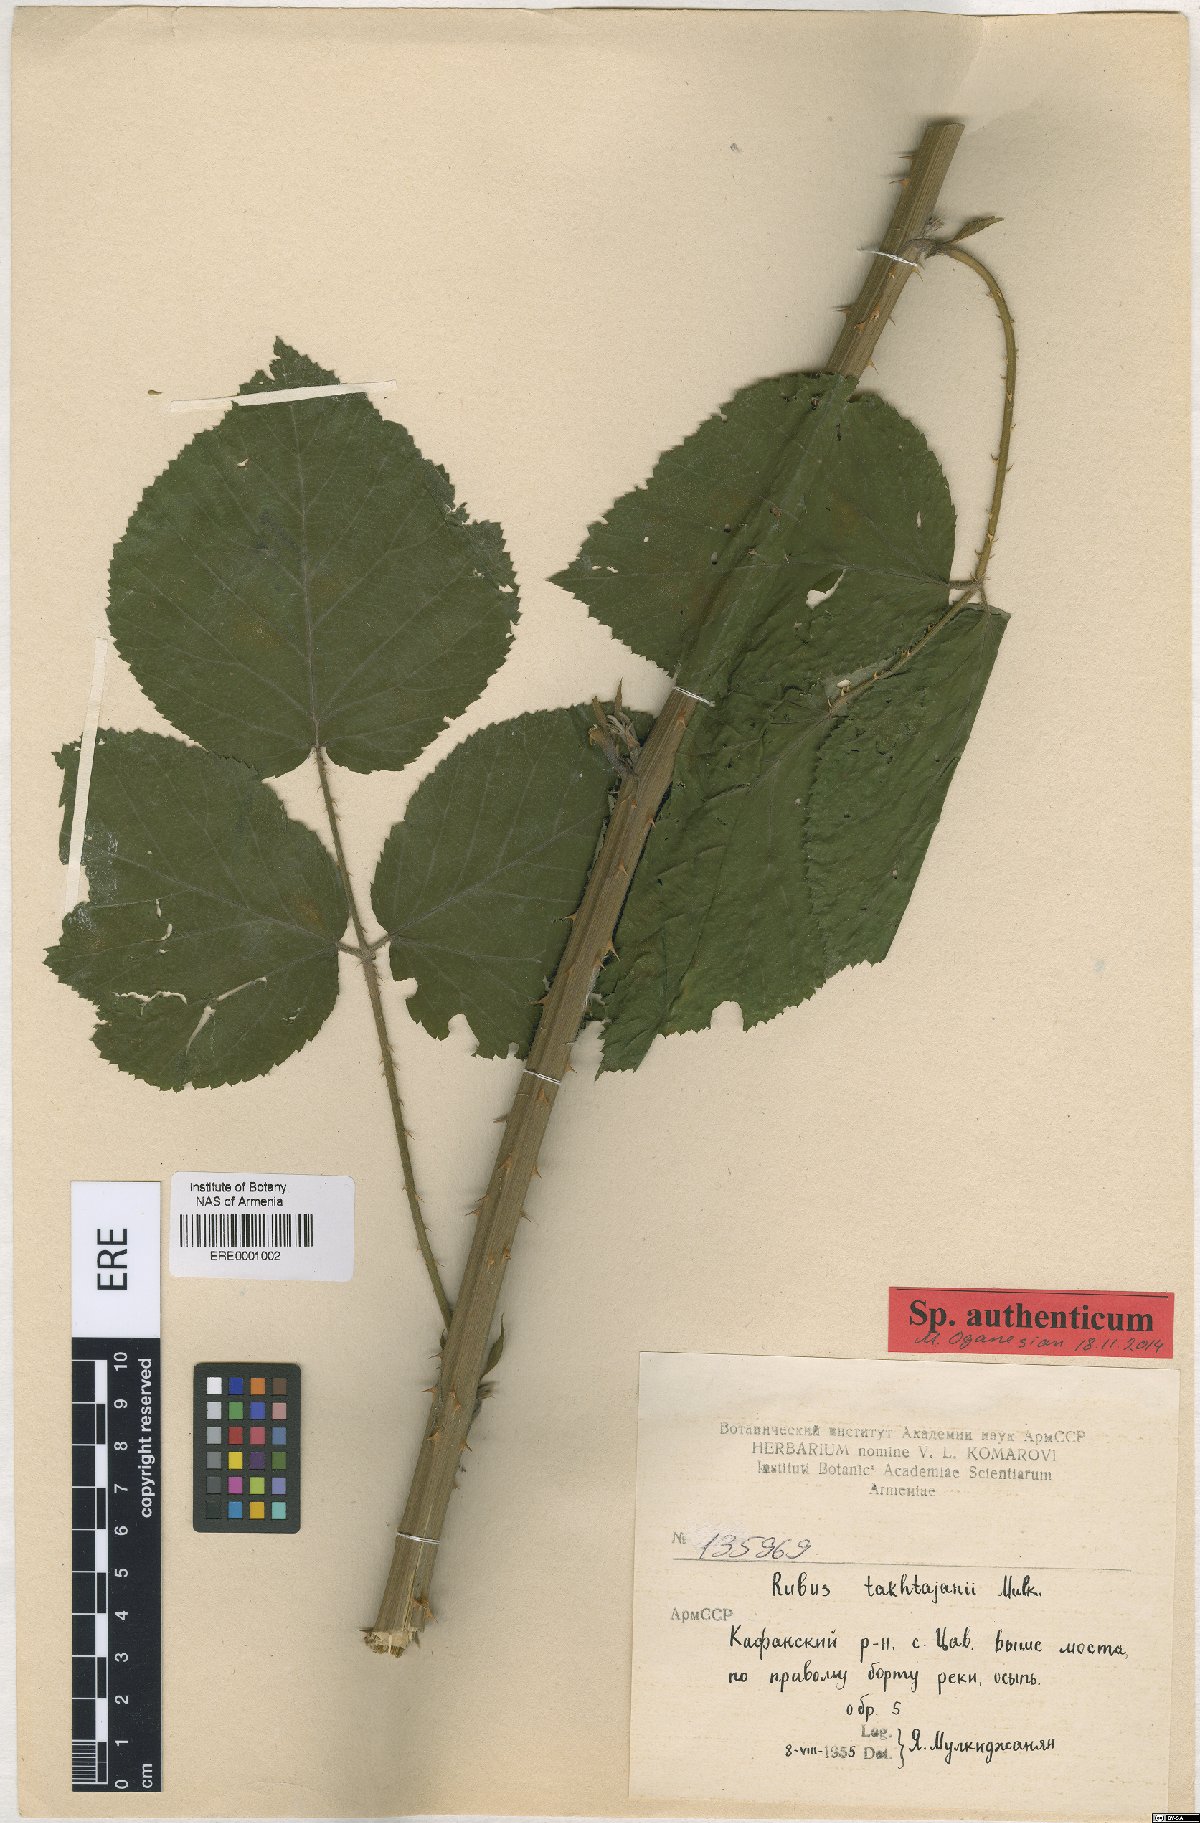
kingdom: Plantae
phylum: Tracheophyta
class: Magnoliopsida
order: Rosales
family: Rosaceae
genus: Rubus
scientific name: Rubus takhtadjanii
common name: Takhtadjan's blackberry
